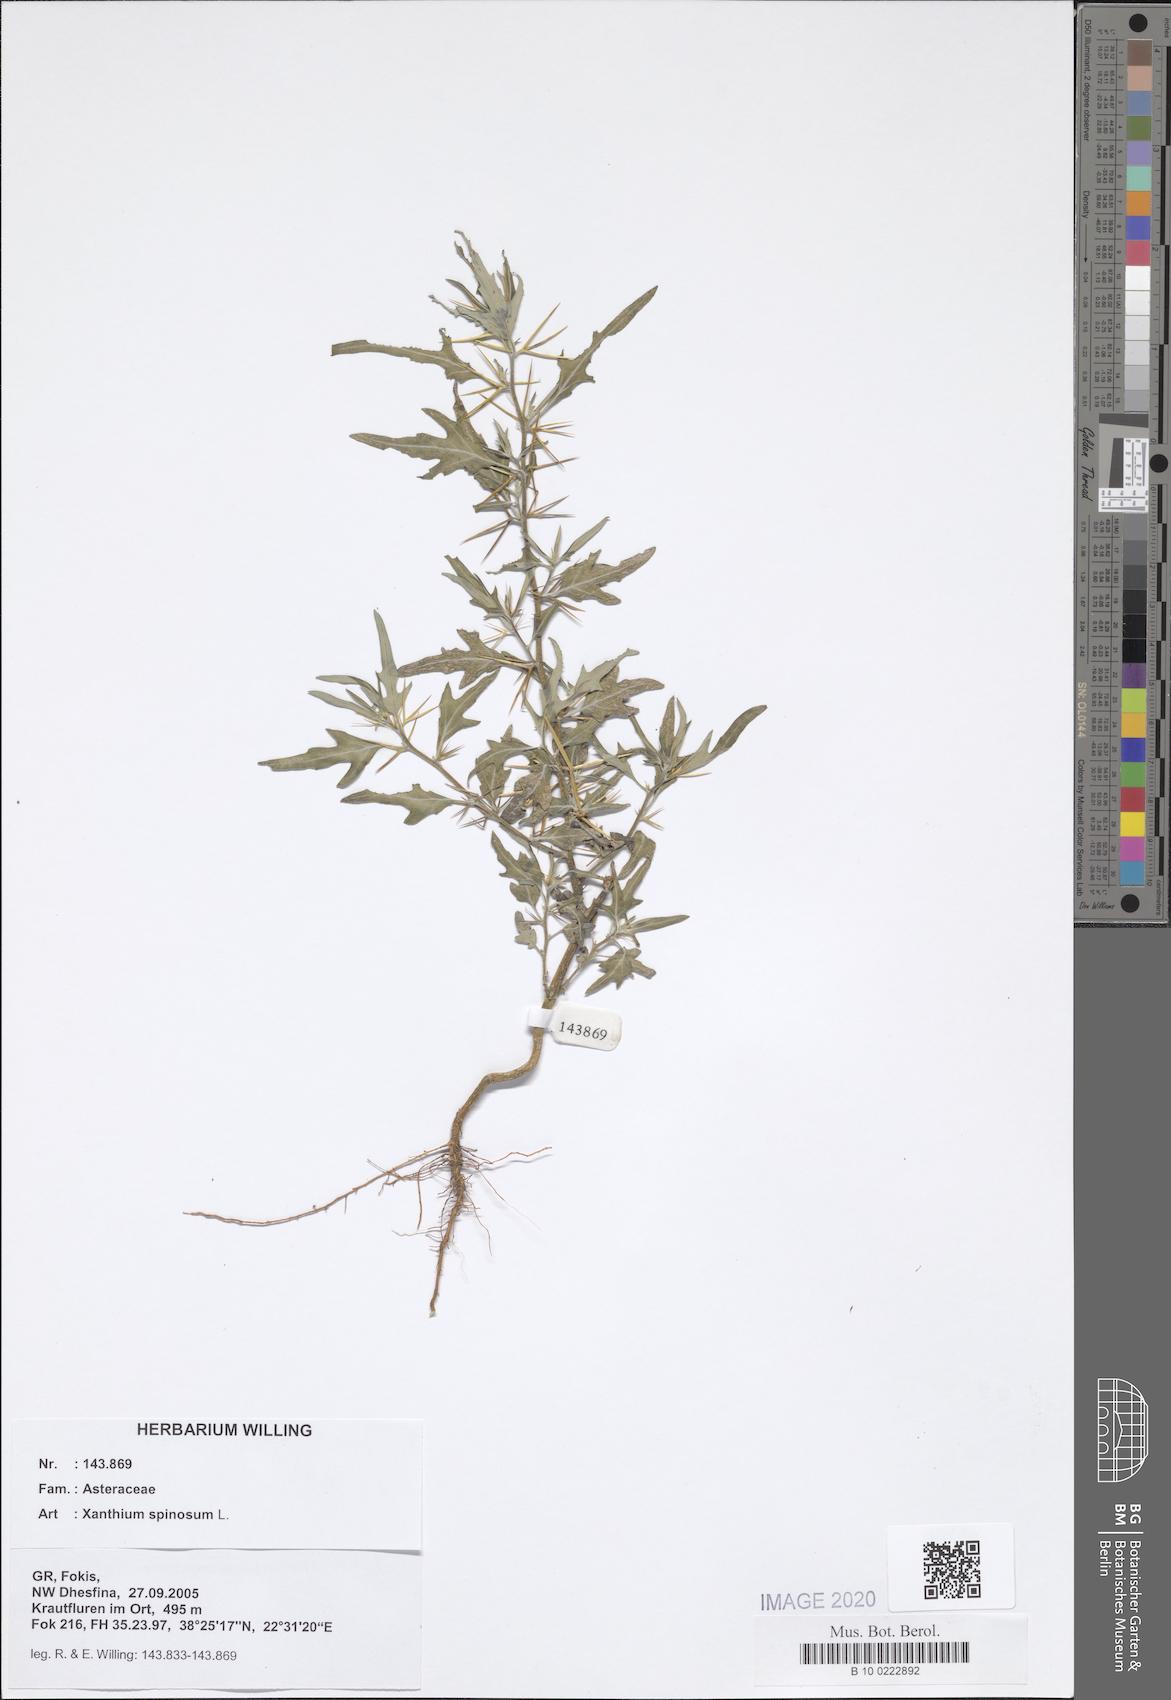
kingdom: Plantae
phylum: Tracheophyta
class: Magnoliopsida
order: Asterales
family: Asteraceae
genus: Xanthium
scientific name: Xanthium spinosum
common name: Spiny cocklebur
